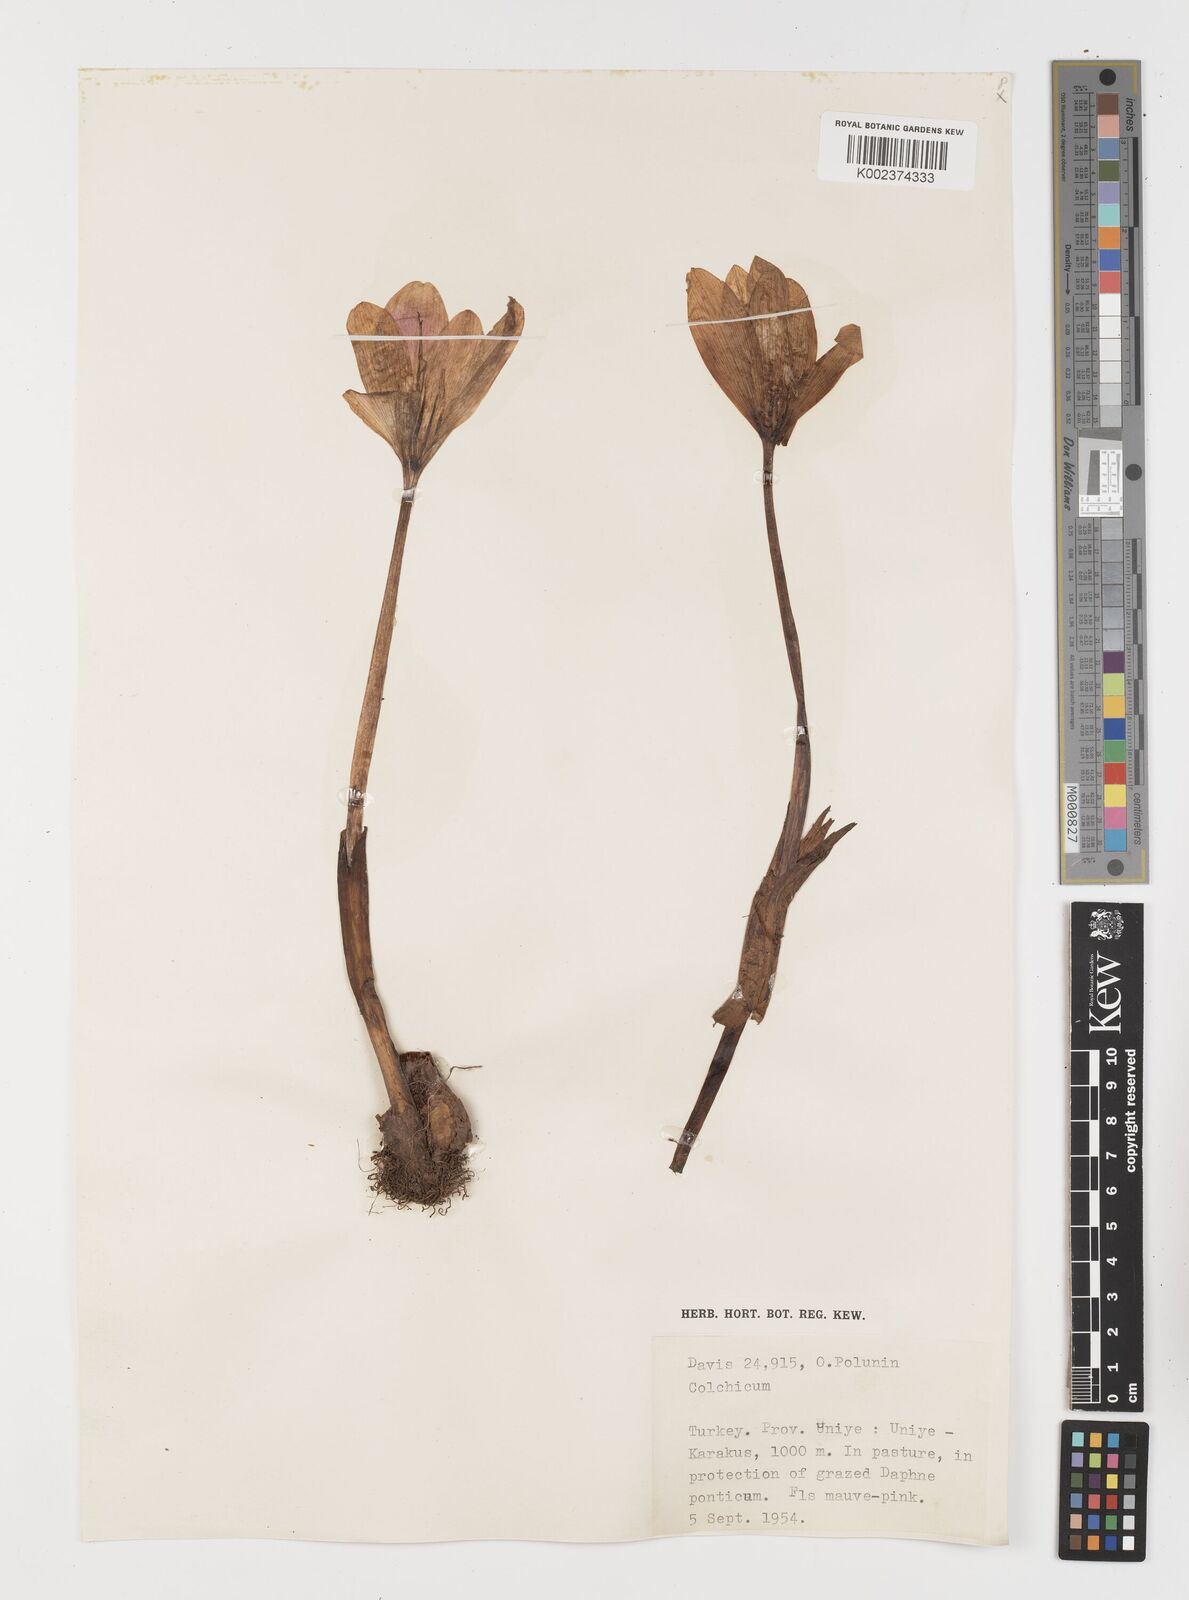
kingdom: Plantae
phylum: Tracheophyta
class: Liliopsida
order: Liliales
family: Colchicaceae
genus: Colchicum
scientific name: Colchicum
